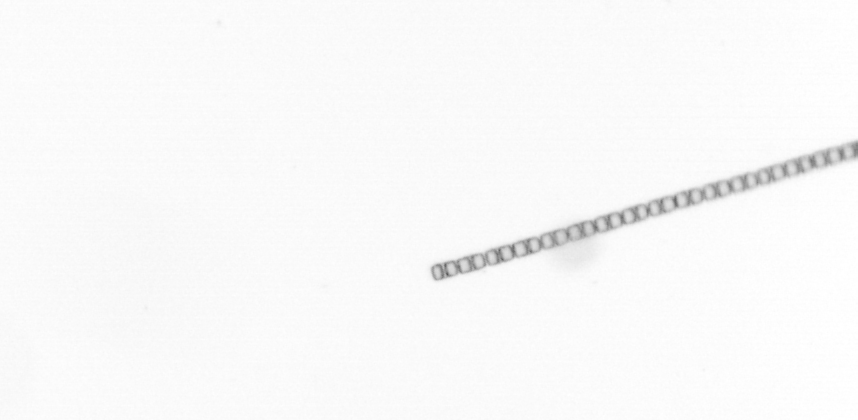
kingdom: Chromista
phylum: Ochrophyta
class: Bacillariophyceae
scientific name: Bacillariophyceae
